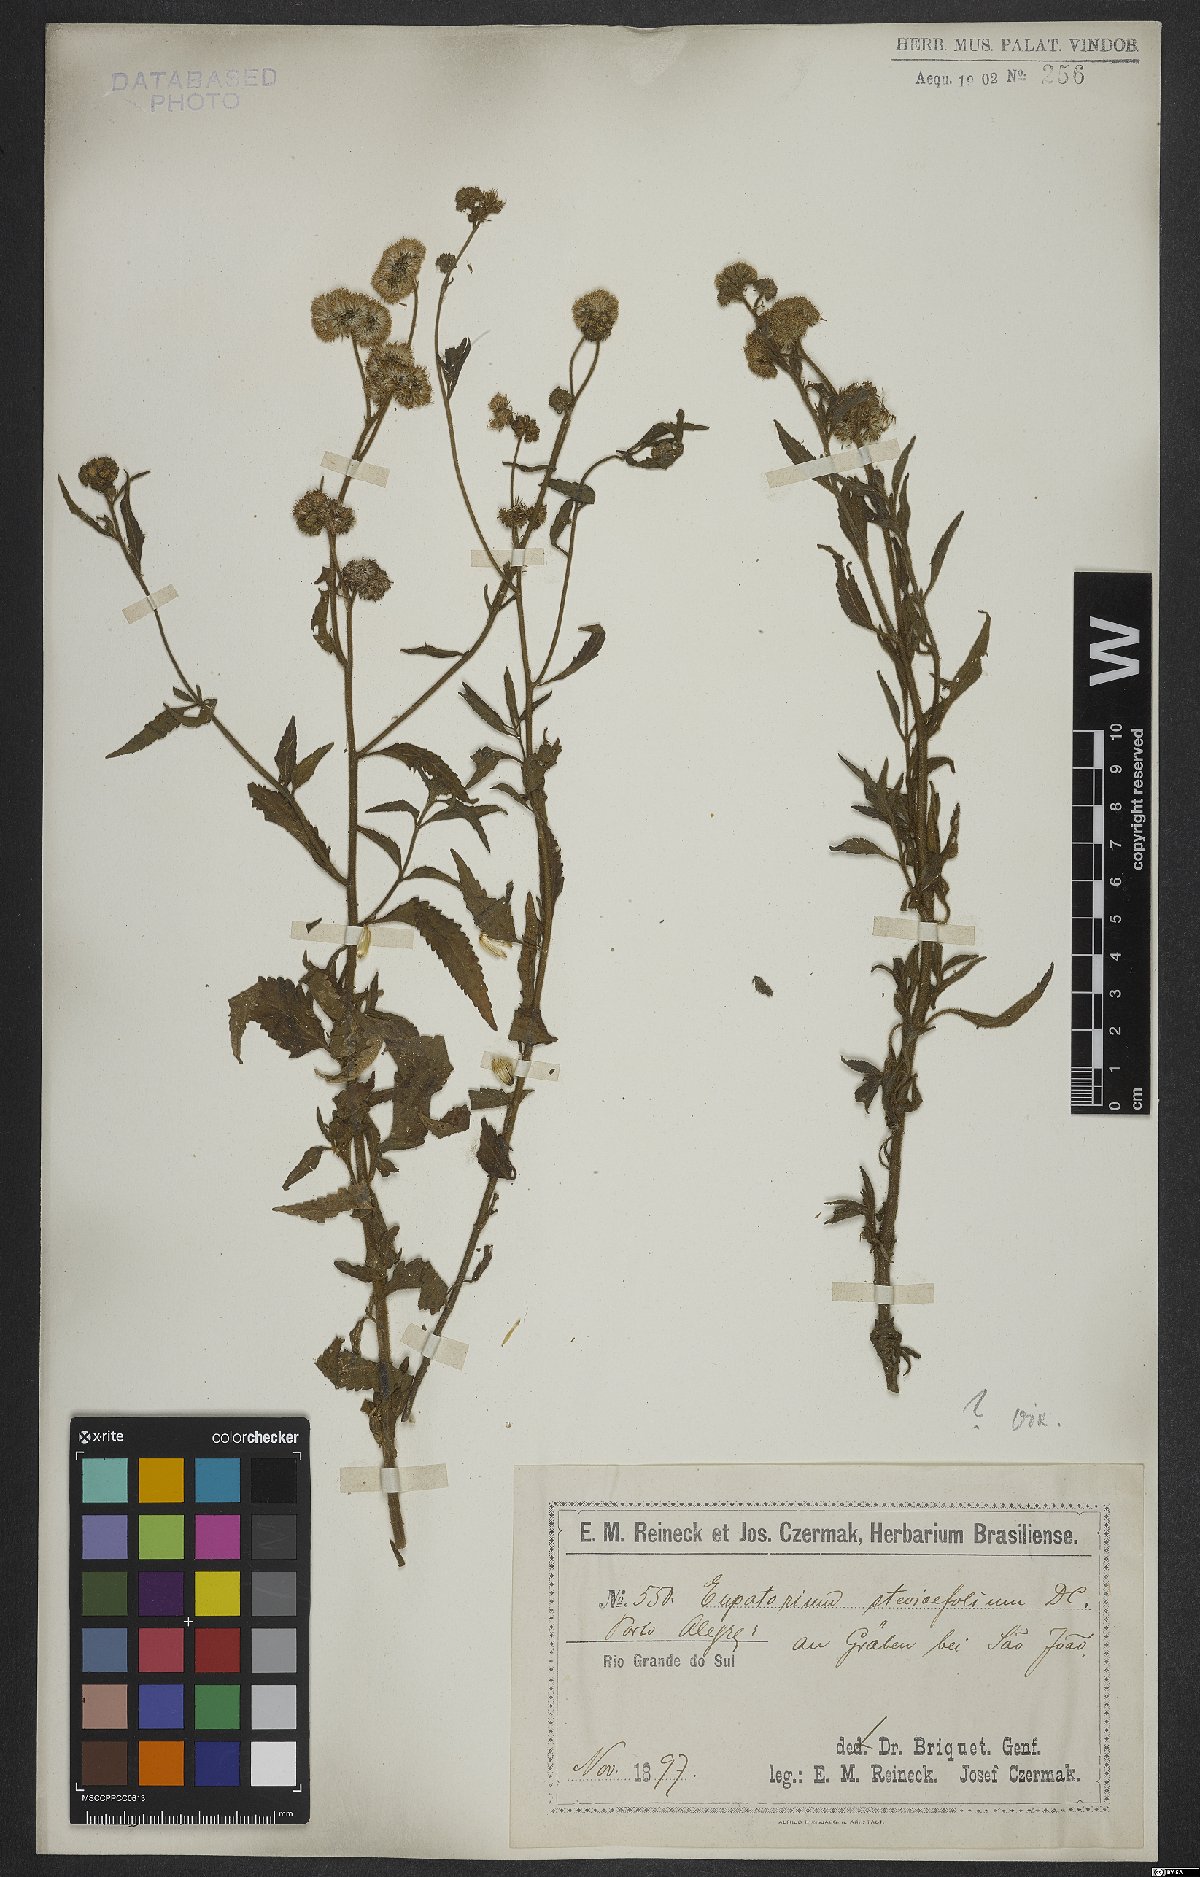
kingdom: Plantae
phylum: Tracheophyta
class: Magnoliopsida
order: Asterales
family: Asteraceae
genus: Hatschbachiella
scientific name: Hatschbachiella tweedieana
